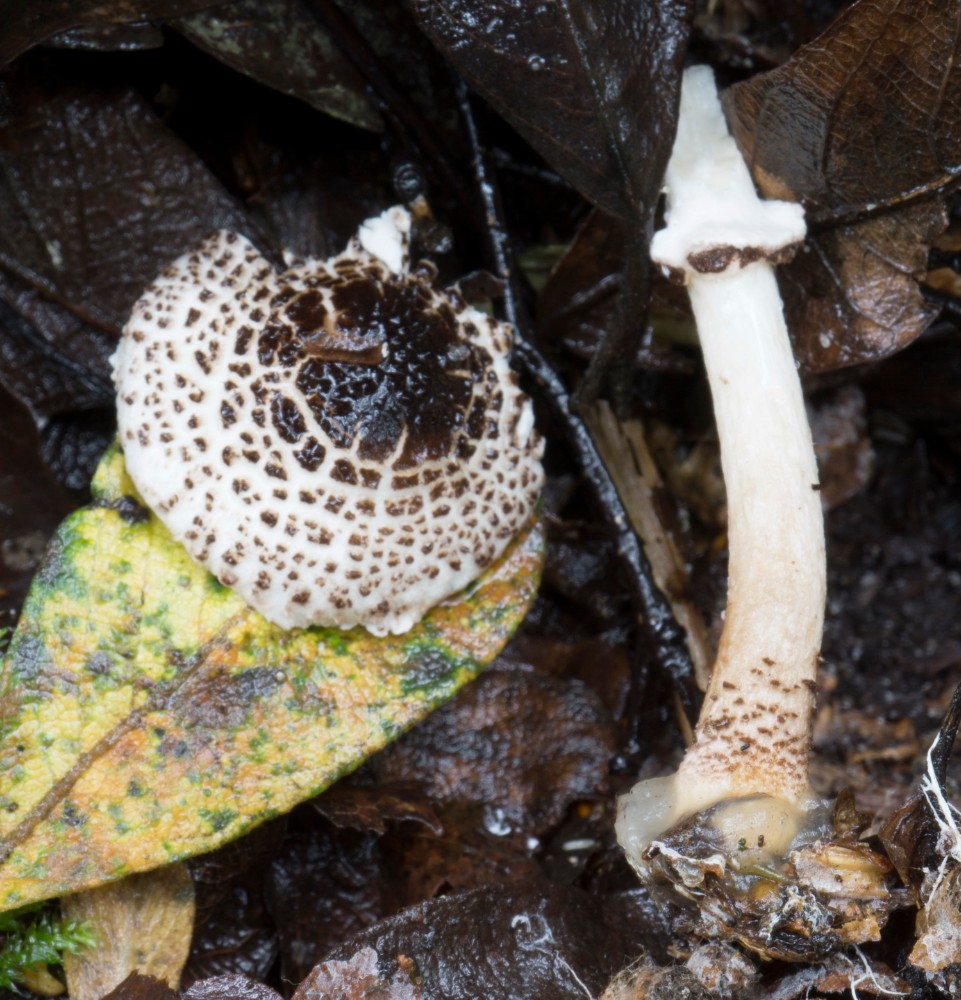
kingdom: Fungi
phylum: Basidiomycota
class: Agaricomycetes
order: Agaricales
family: Agaricaceae
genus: Lepiota
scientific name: Lepiota felina
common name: sortskællet parasolhat
